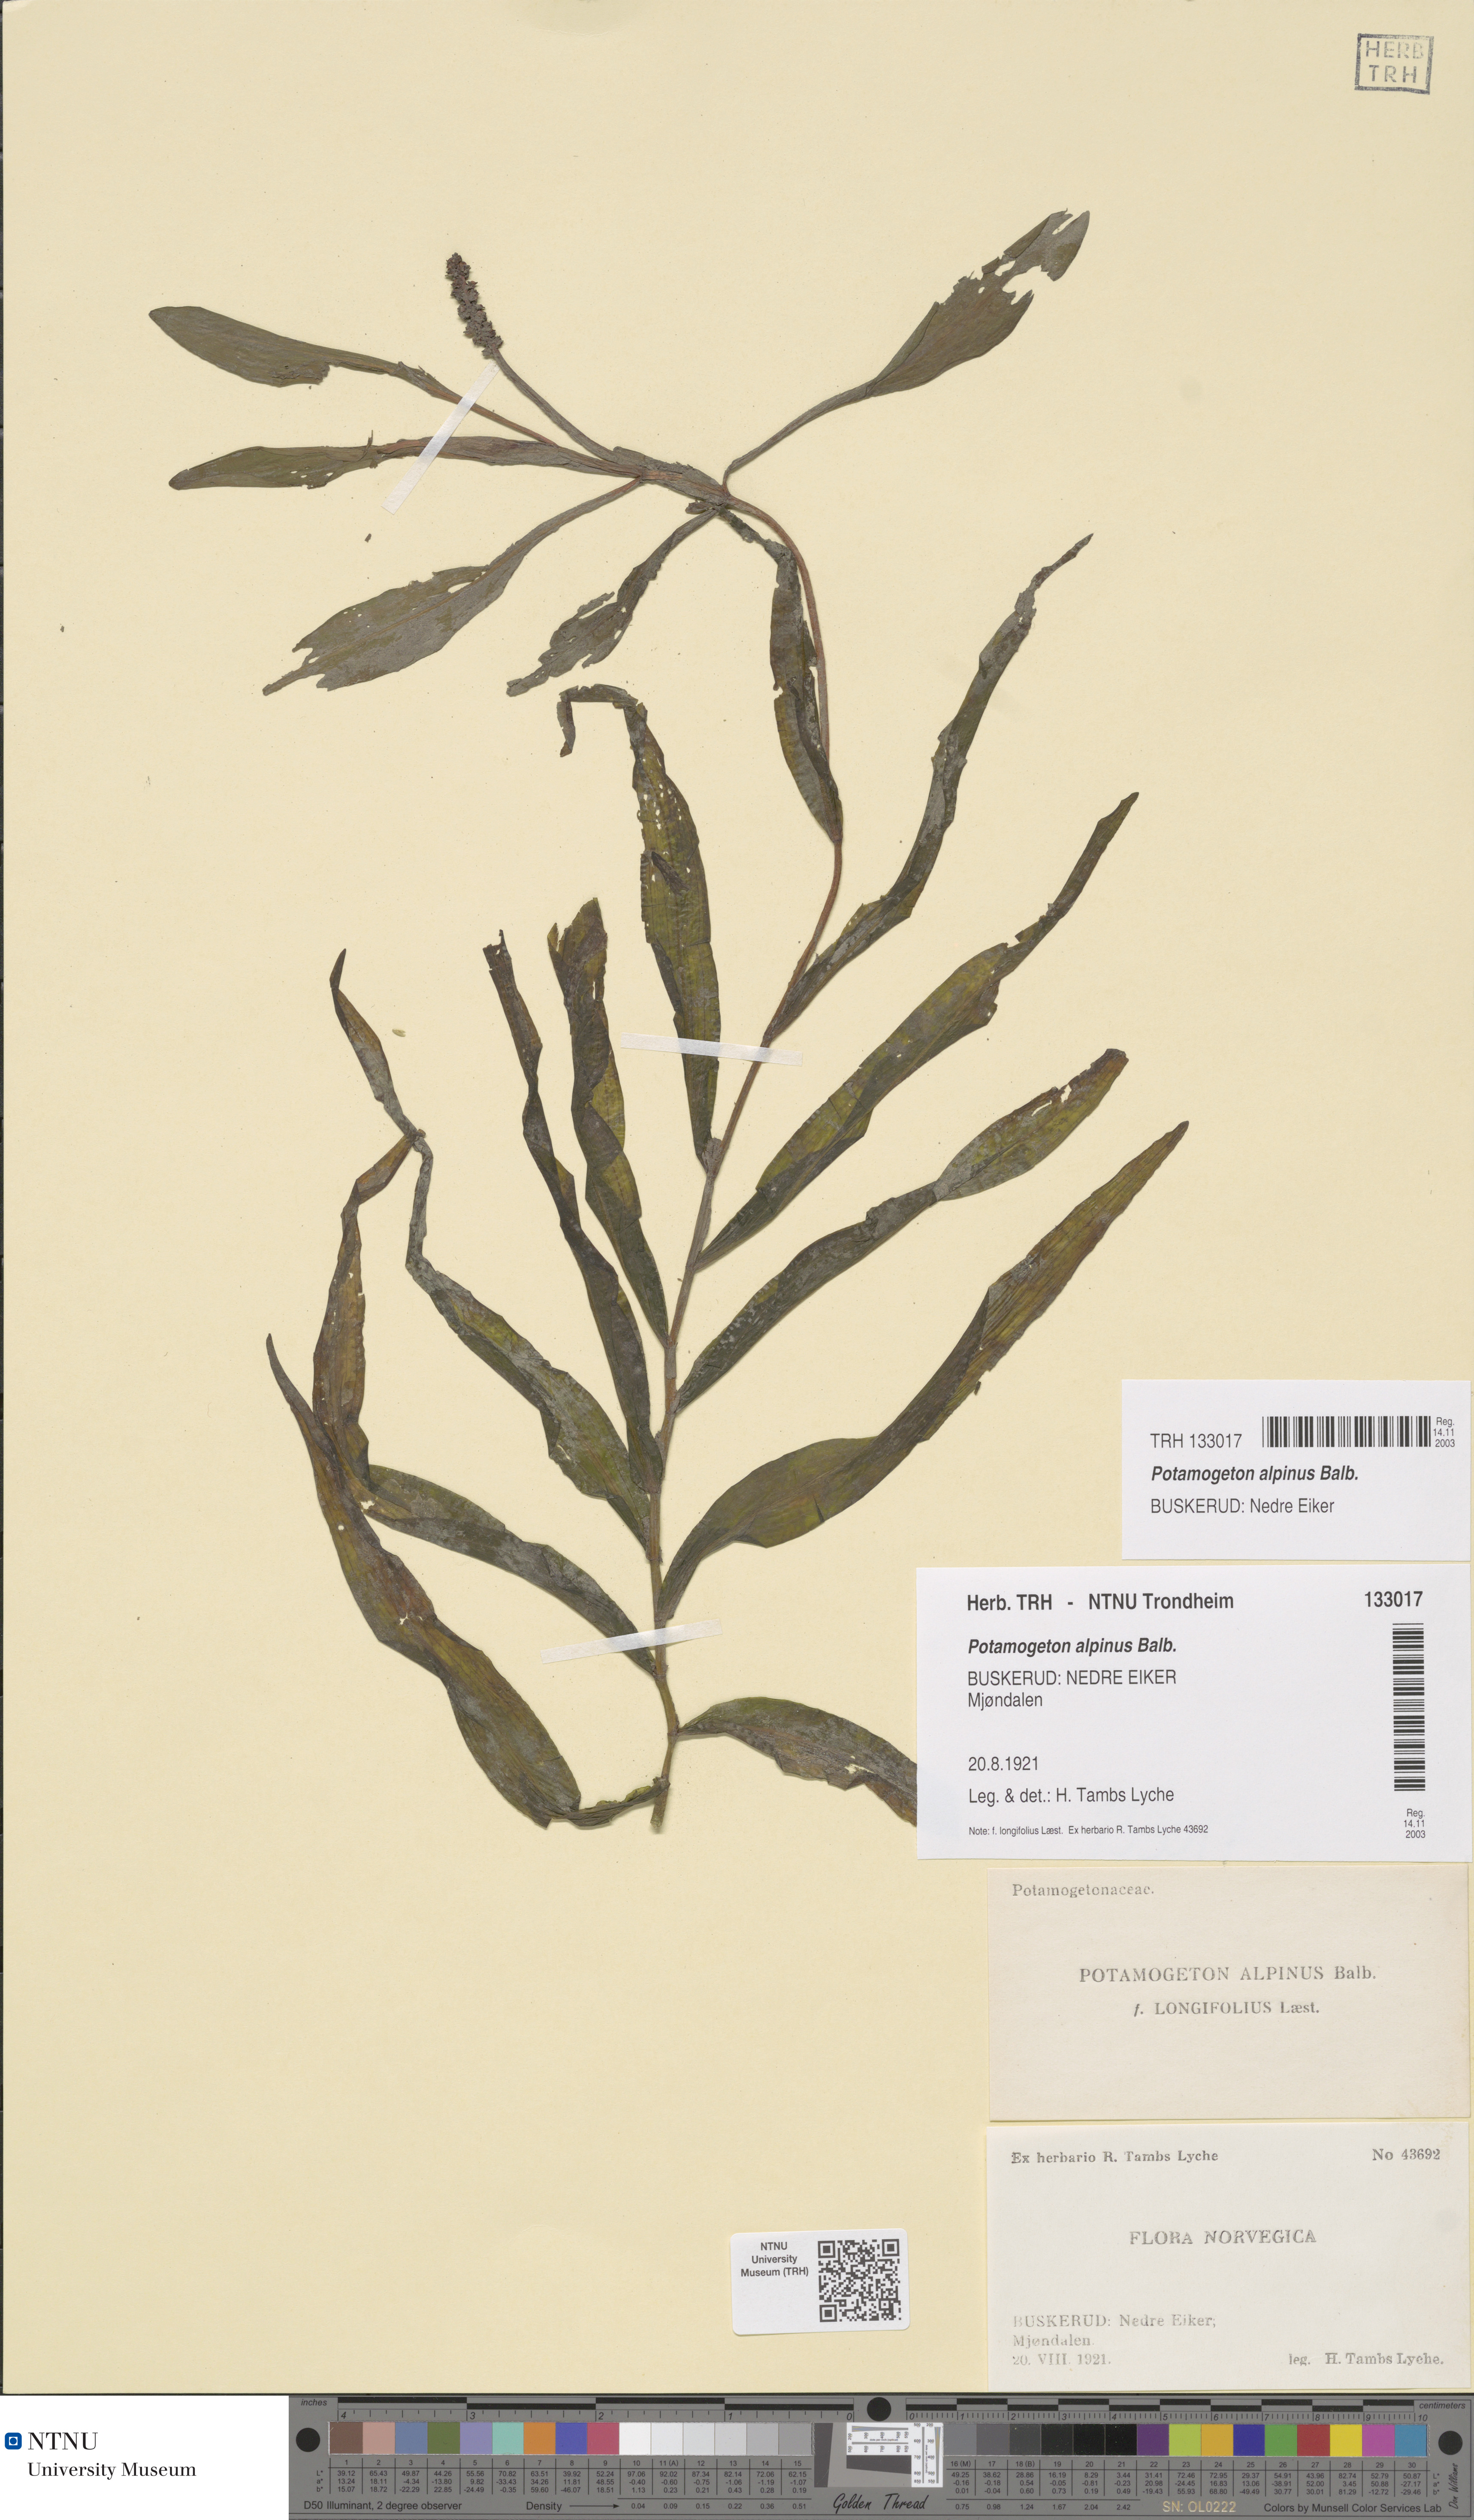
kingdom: Plantae
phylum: Tracheophyta
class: Liliopsida
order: Alismatales
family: Potamogetonaceae
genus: Potamogeton
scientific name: Potamogeton alpinus
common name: Red pondweed
